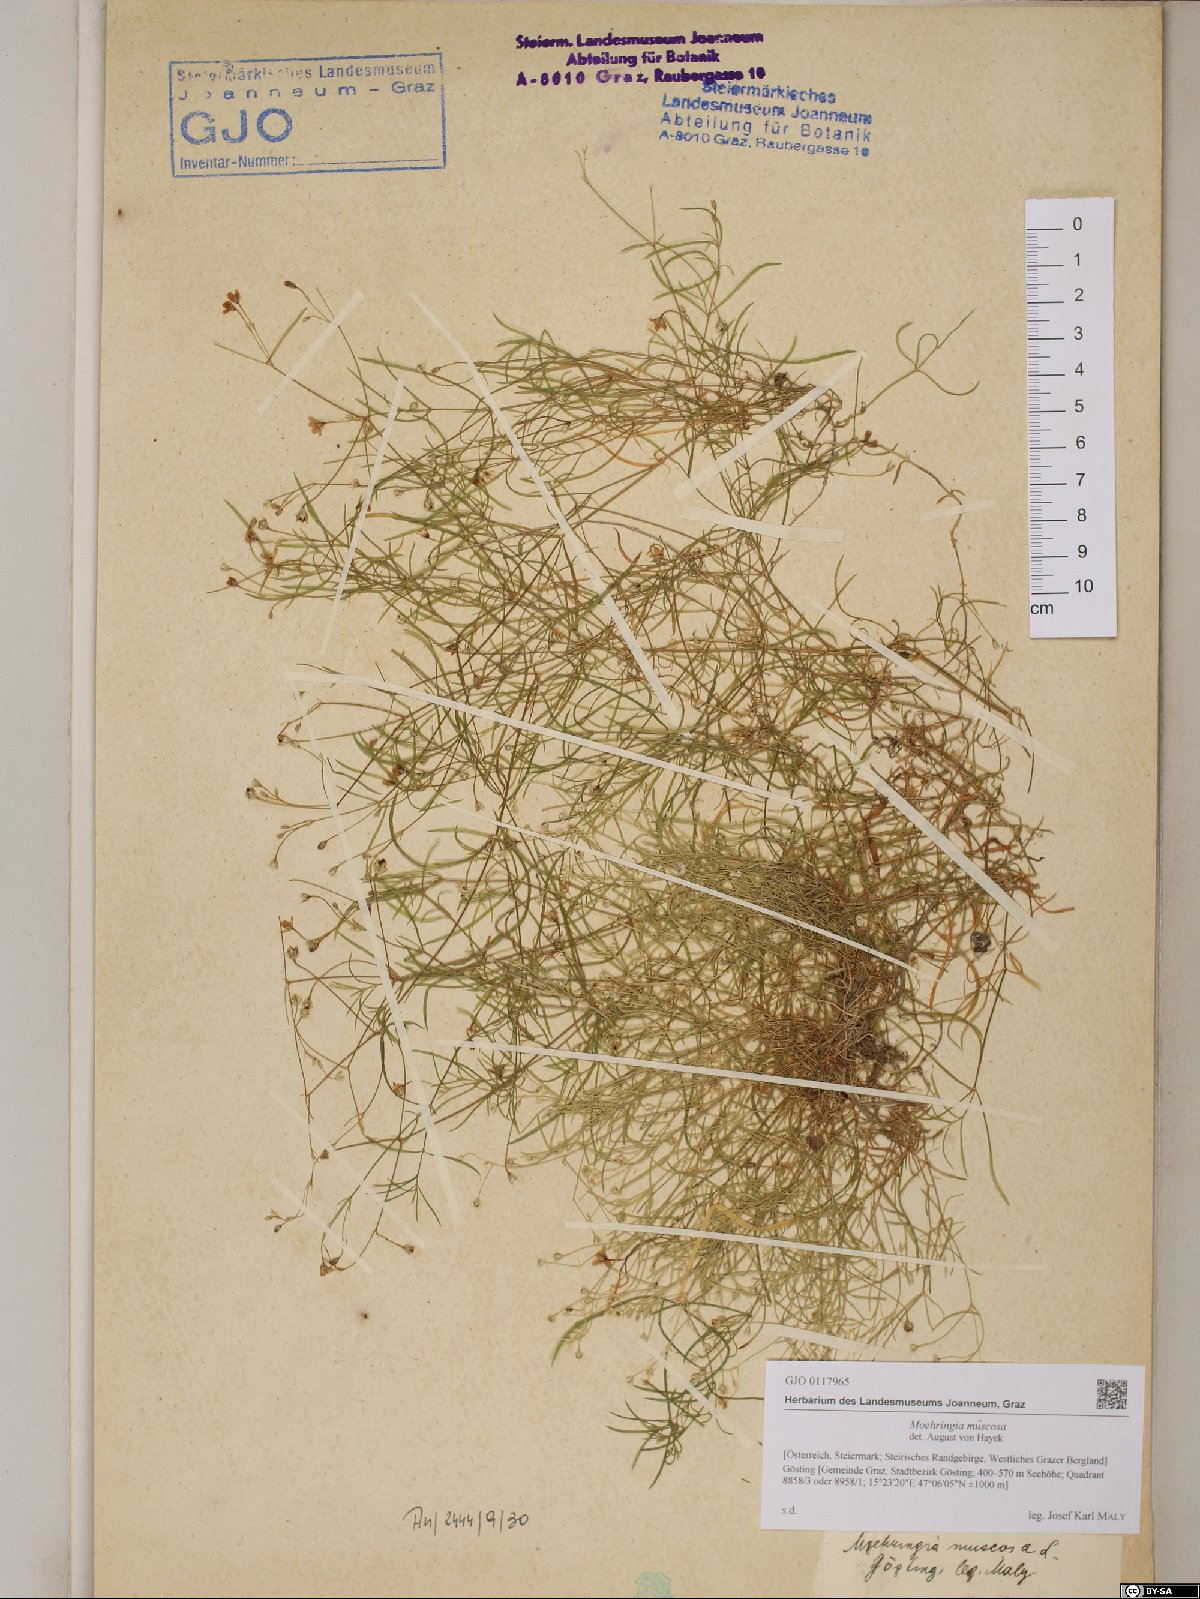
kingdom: Plantae
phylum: Tracheophyta
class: Magnoliopsida
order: Caryophyllales
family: Caryophyllaceae
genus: Moehringia
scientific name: Moehringia muscosa
